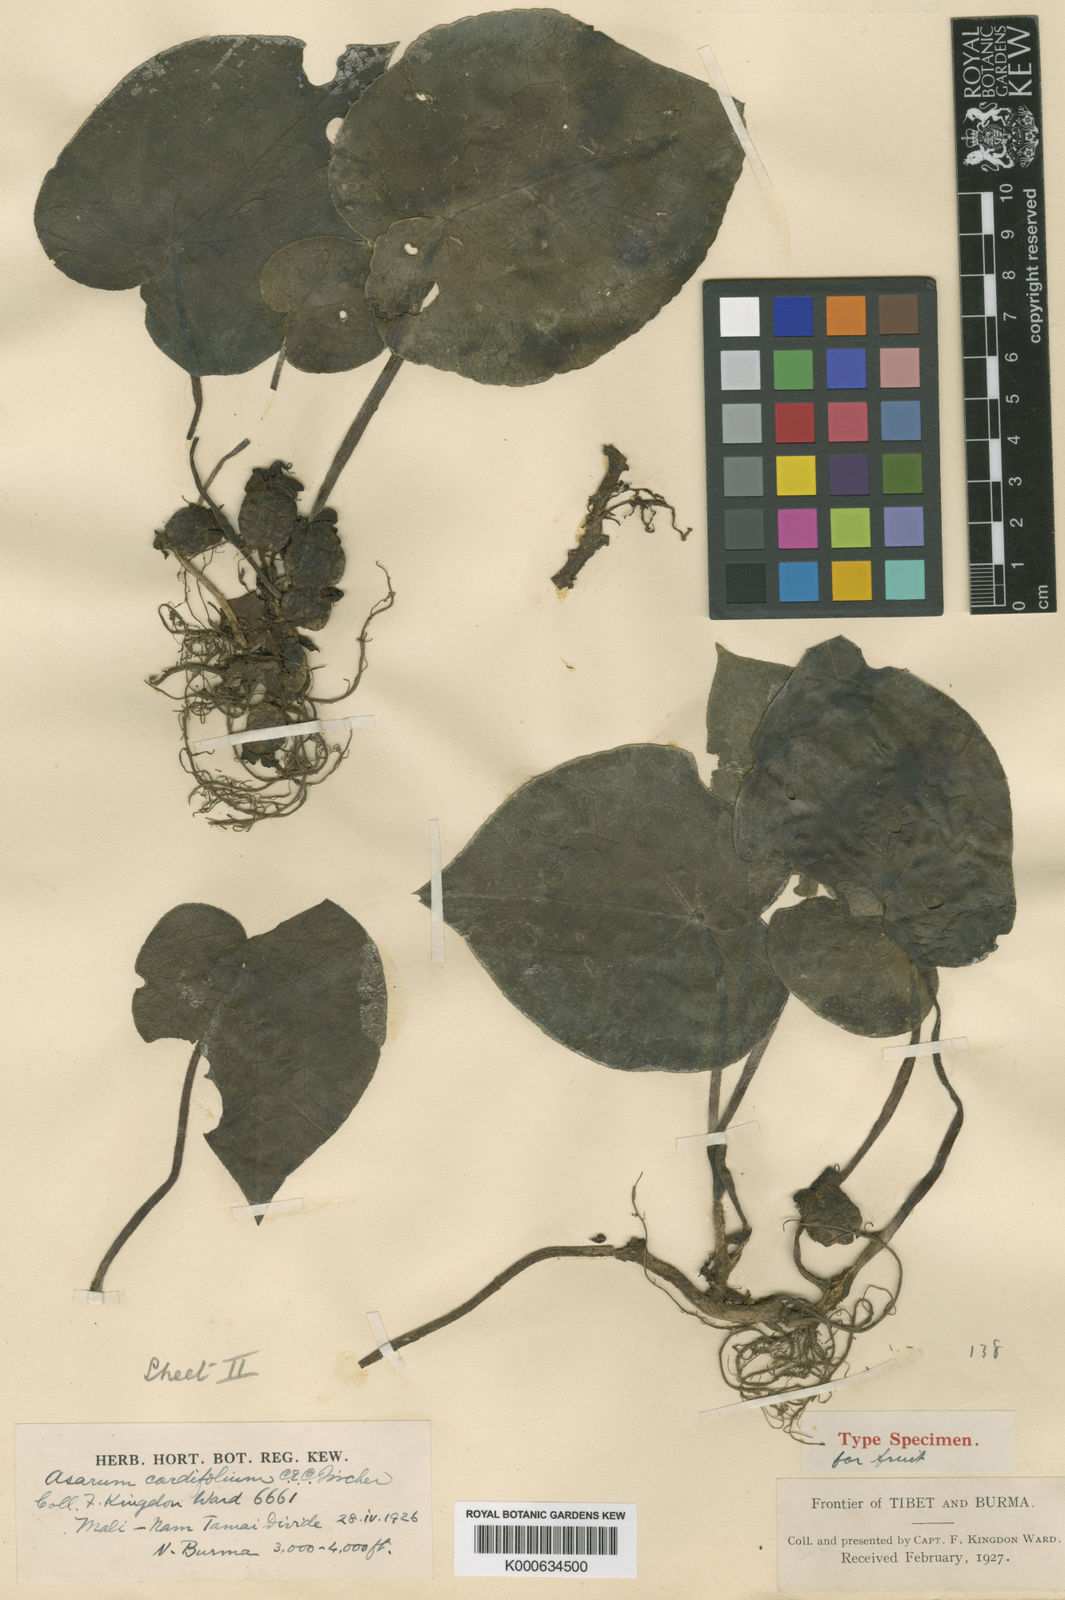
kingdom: Plantae
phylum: Tracheophyta
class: Magnoliopsida
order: Piperales
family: Aristolochiaceae
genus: Asarum
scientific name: Asarum cordifolium
